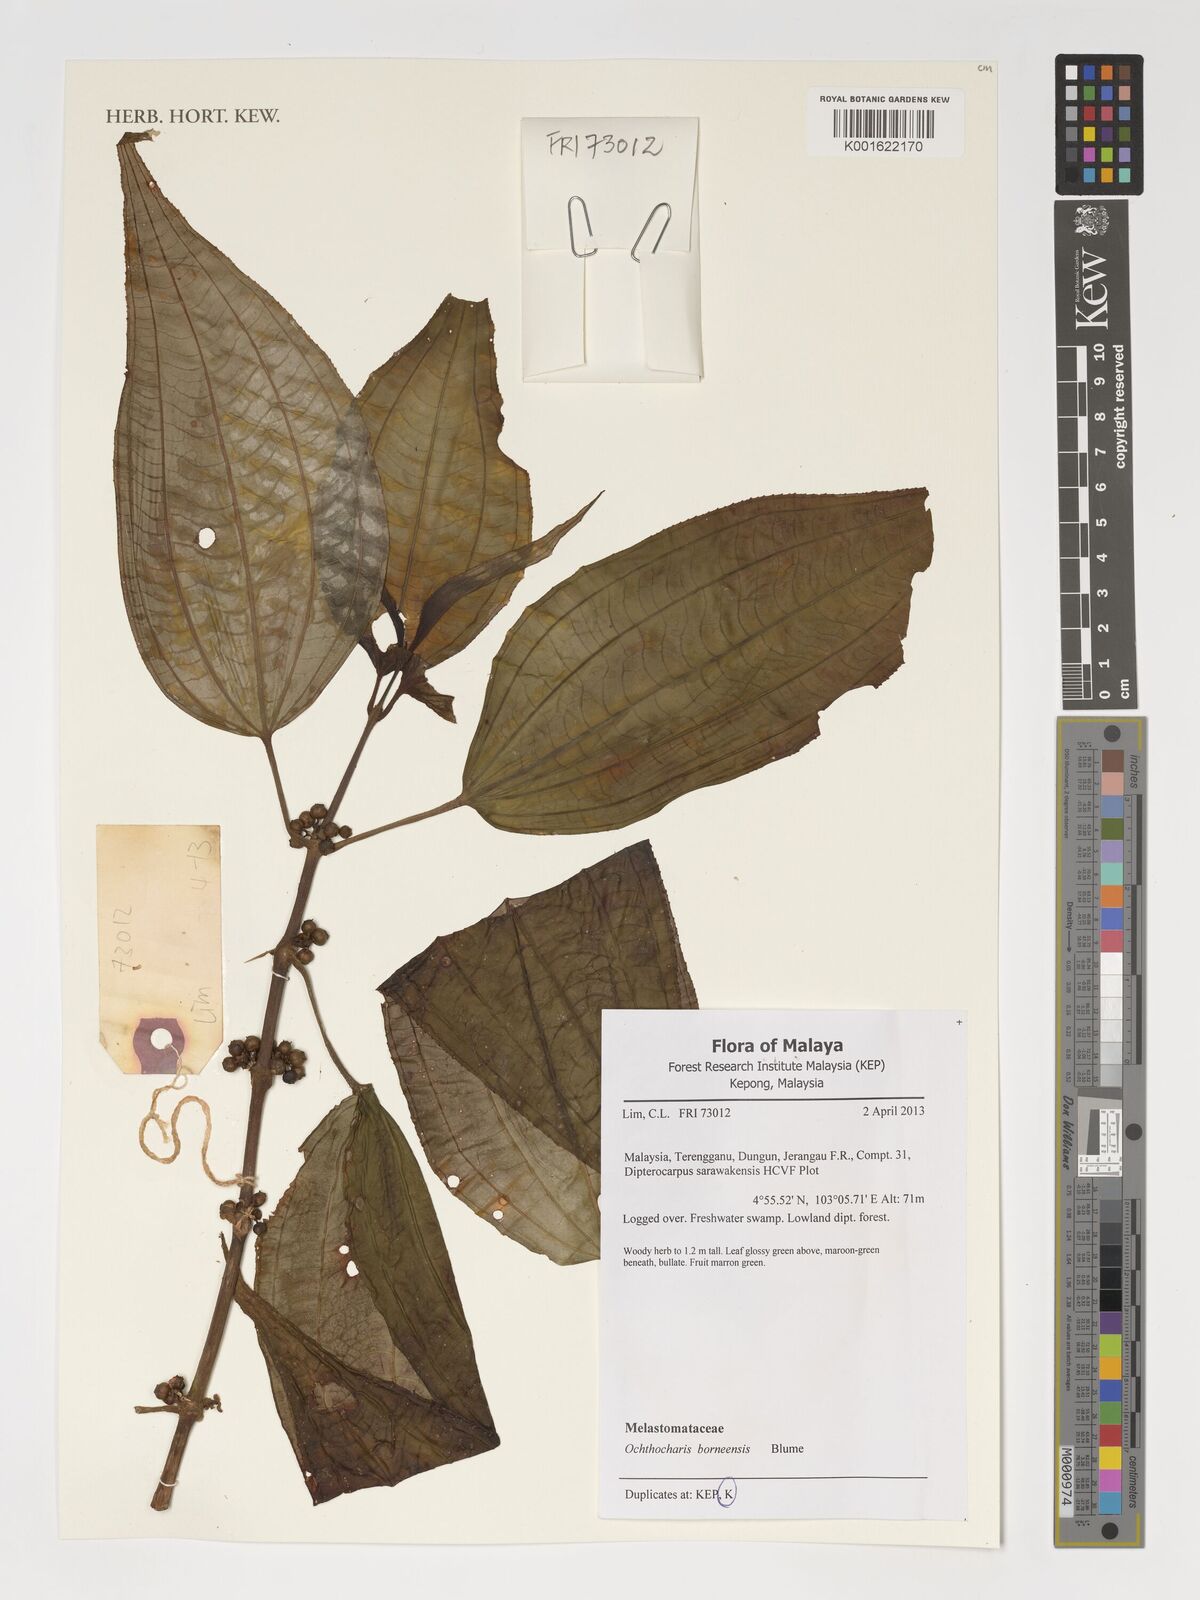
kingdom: Plantae
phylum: Tracheophyta
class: Magnoliopsida
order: Myrtales
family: Melastomataceae
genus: Ochthocharis
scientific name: Ochthocharis
